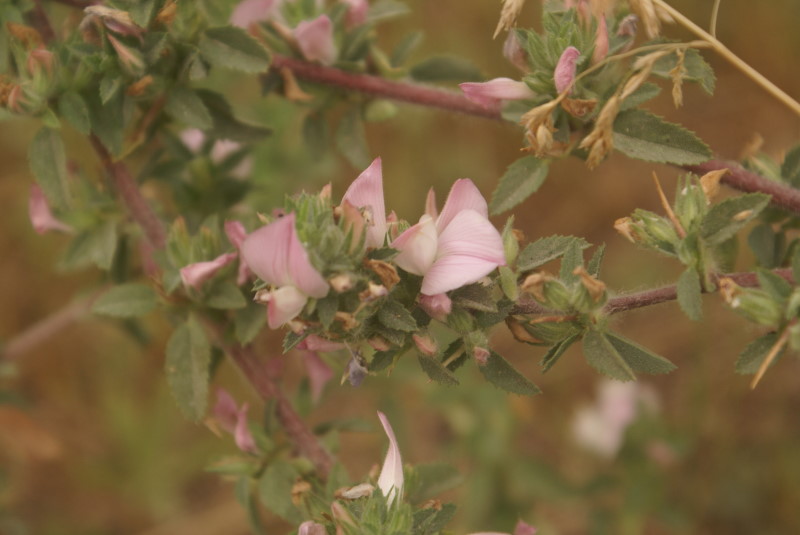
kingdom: Plantae
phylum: Tracheophyta
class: Magnoliopsida
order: Fabales
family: Fabaceae
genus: Ononis
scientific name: Ononis arvensis
